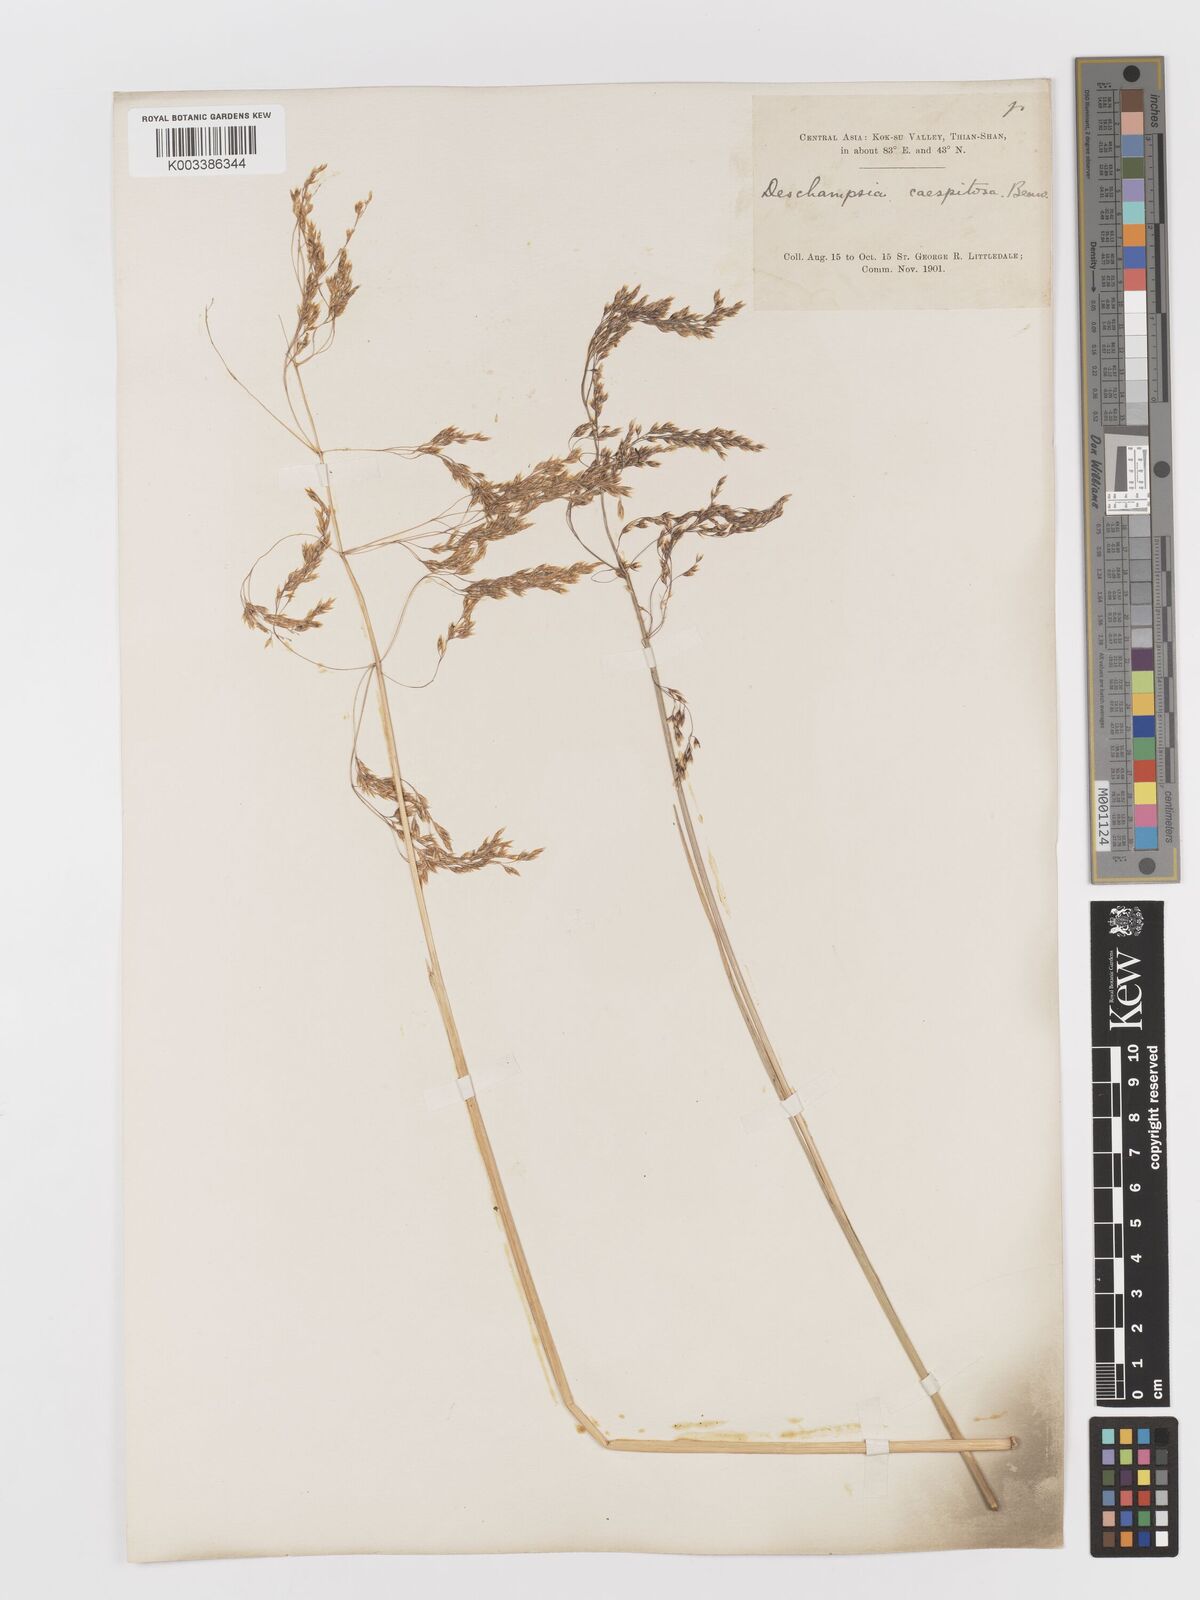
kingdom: Plantae
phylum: Tracheophyta
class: Liliopsida
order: Poales
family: Poaceae
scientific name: Poaceae
